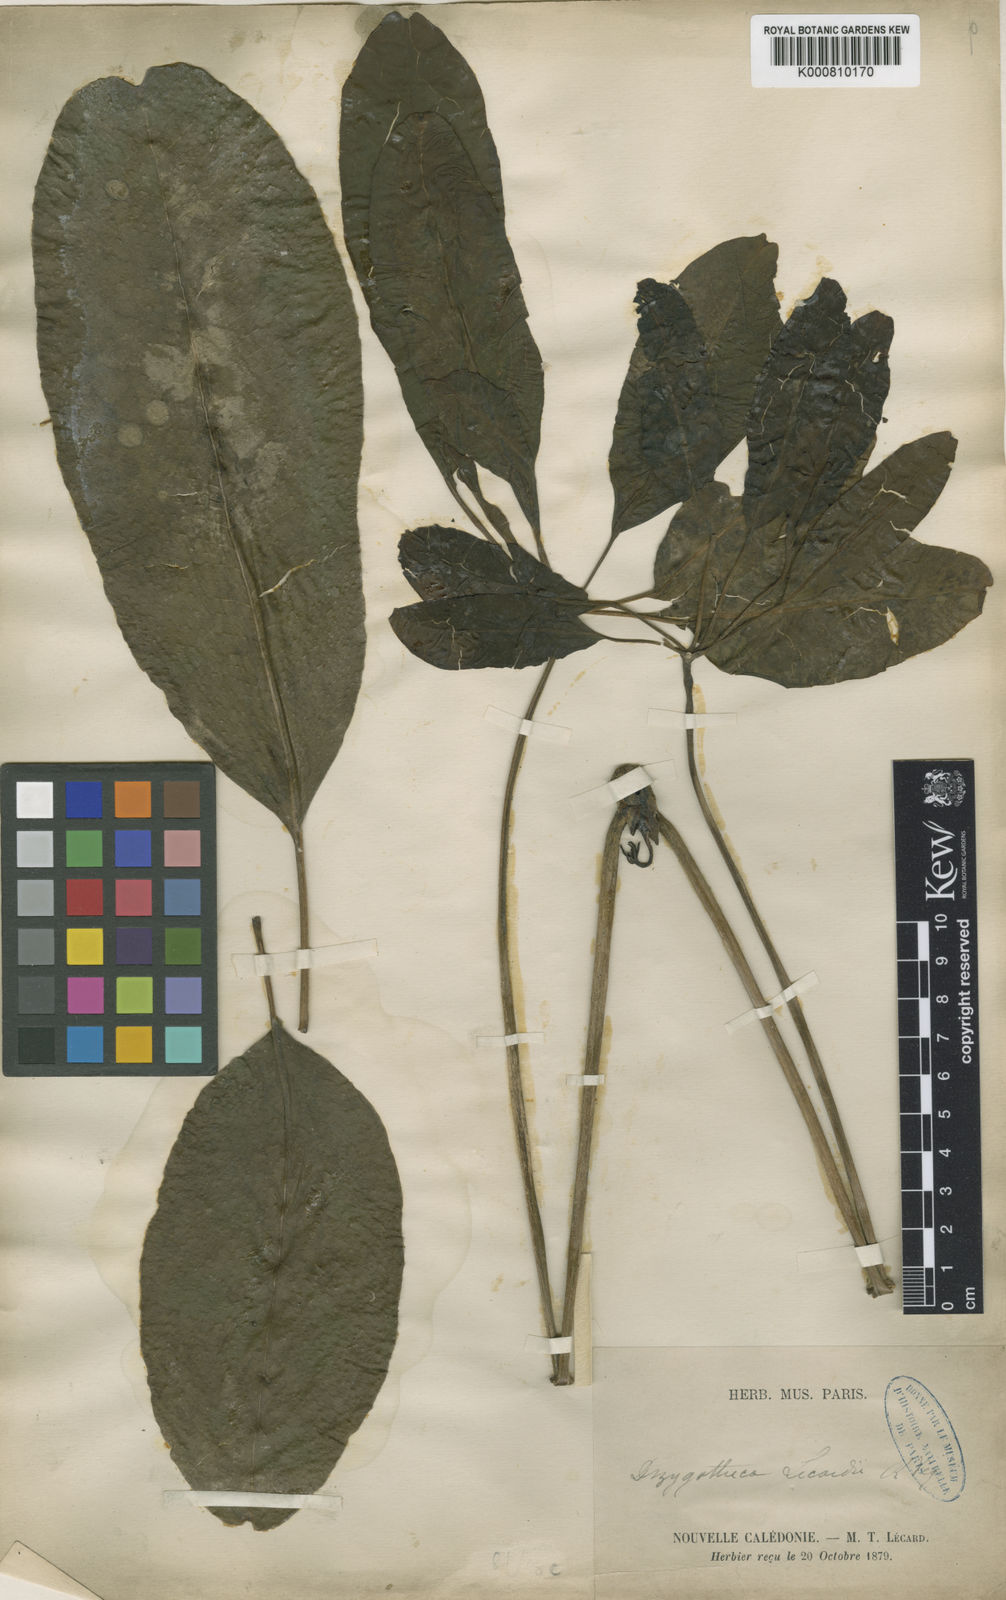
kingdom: Plantae
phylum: Tracheophyta
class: Magnoliopsida
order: Apiales
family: Araliaceae
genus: Schefflera
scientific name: Schefflera
